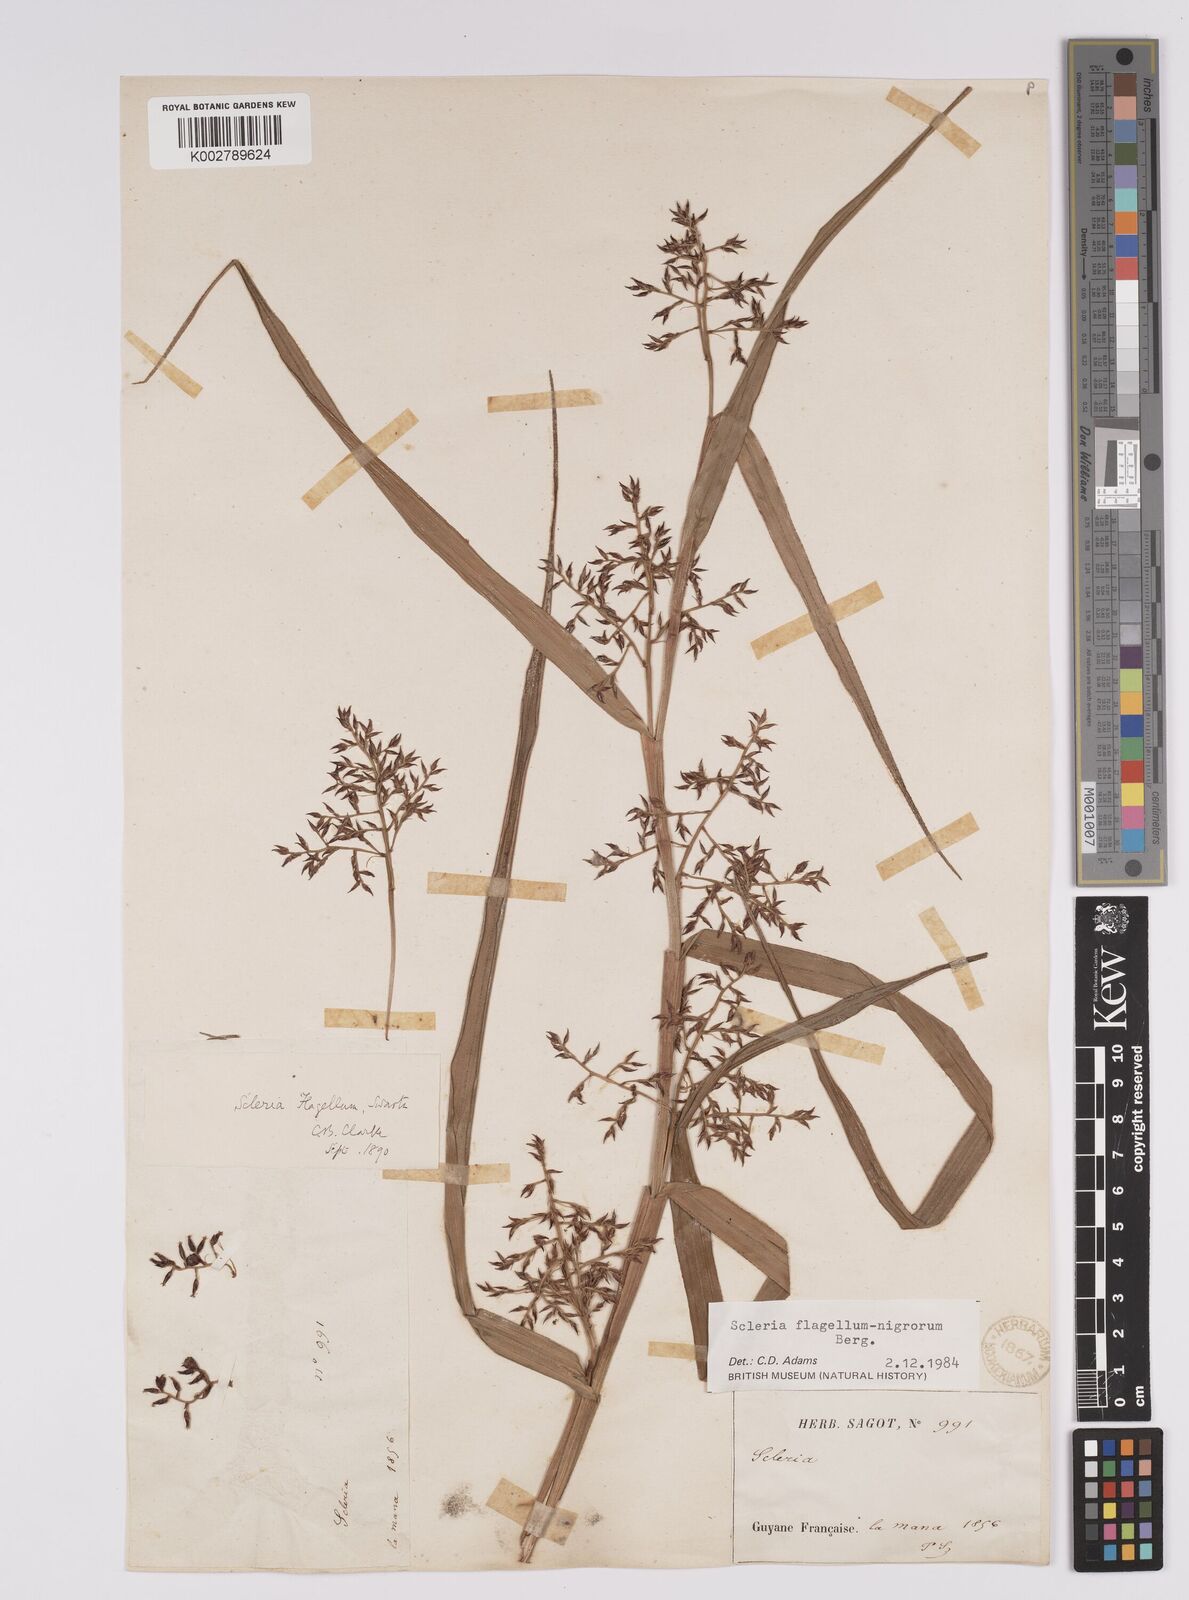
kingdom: Plantae
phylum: Tracheophyta
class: Liliopsida
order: Poales
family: Cyperaceae
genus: Scleria
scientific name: Scleria flagellum-nigrorum
